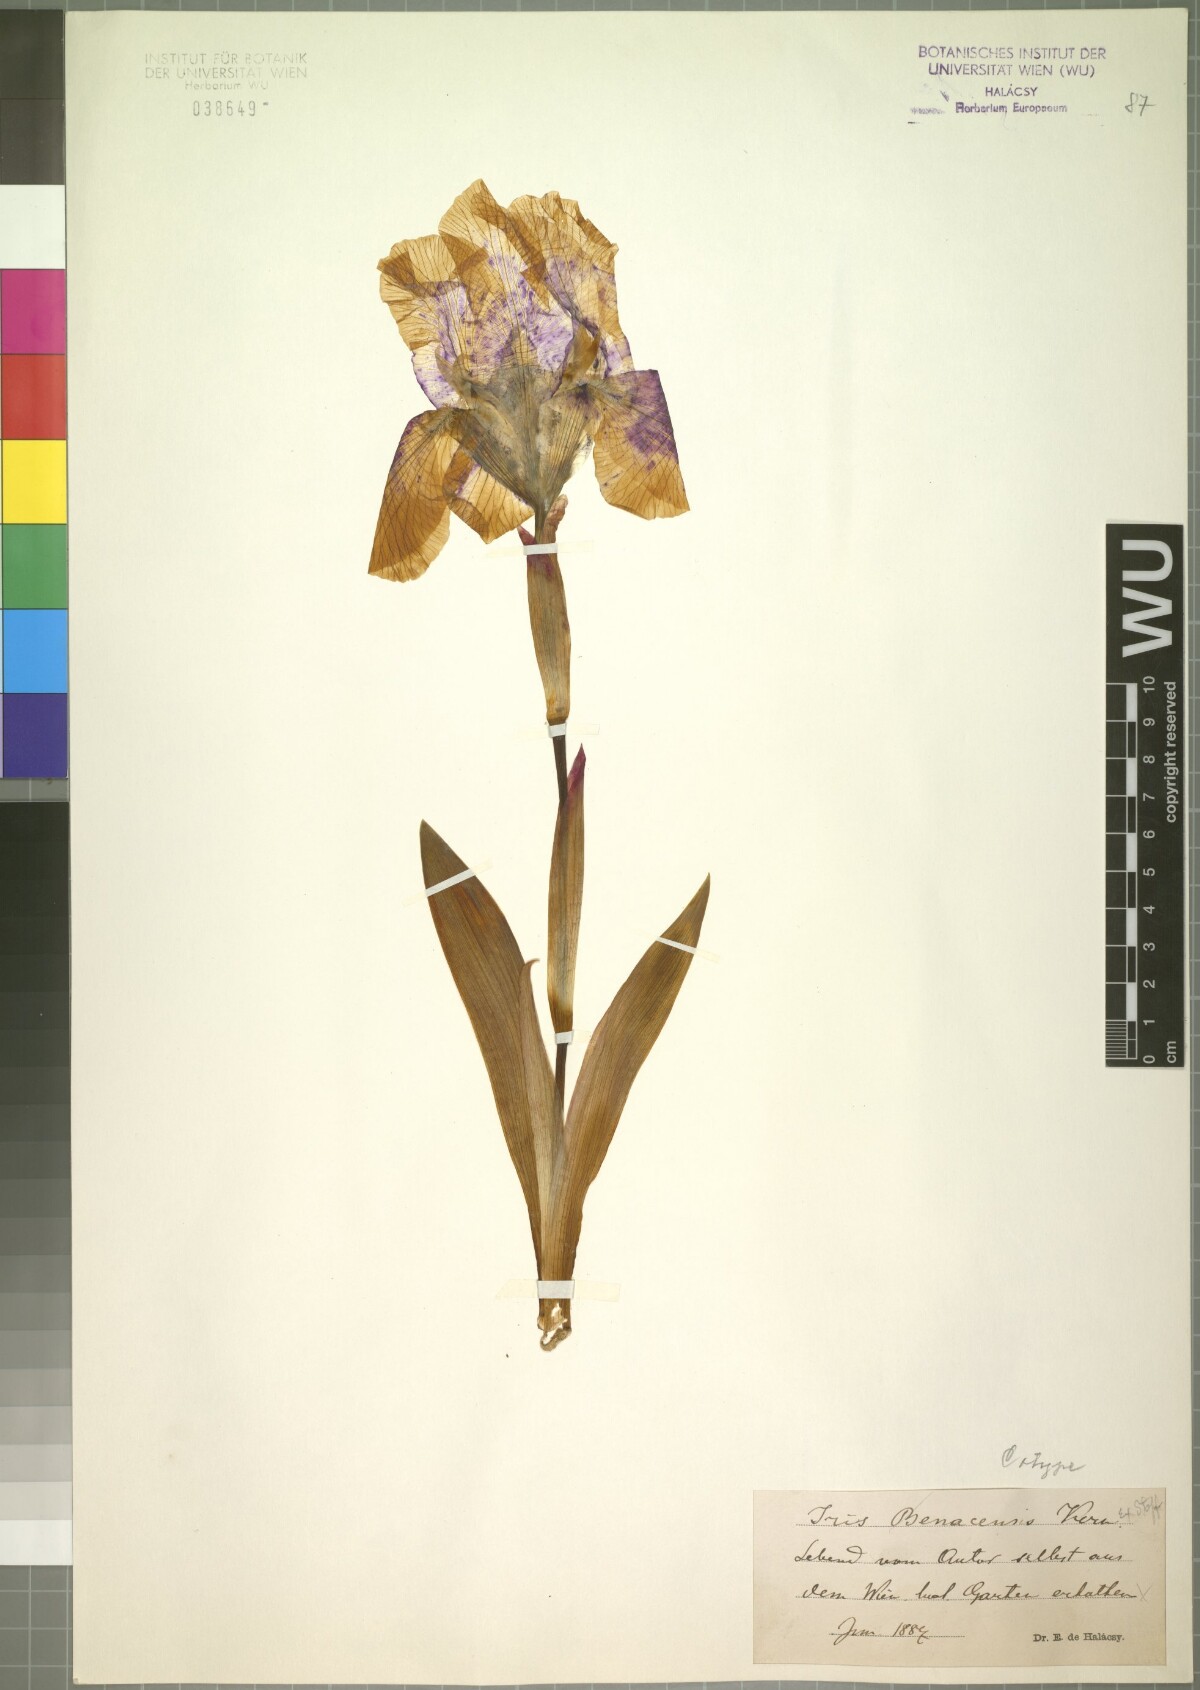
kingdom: Plantae
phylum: Tracheophyta
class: Liliopsida
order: Asparagales
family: Iridaceae
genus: Iris
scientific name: Iris benacensis
